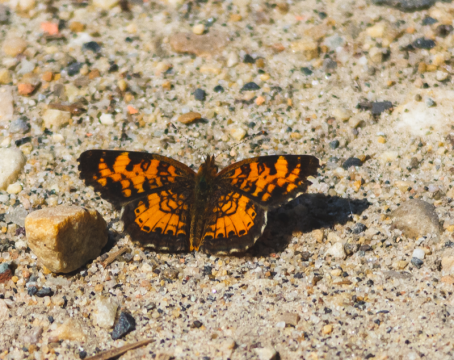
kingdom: Animalia
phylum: Arthropoda
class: Insecta
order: Lepidoptera
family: Nymphalidae
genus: Phyciodes
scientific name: Phyciodes tharos
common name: Northern Crescent
